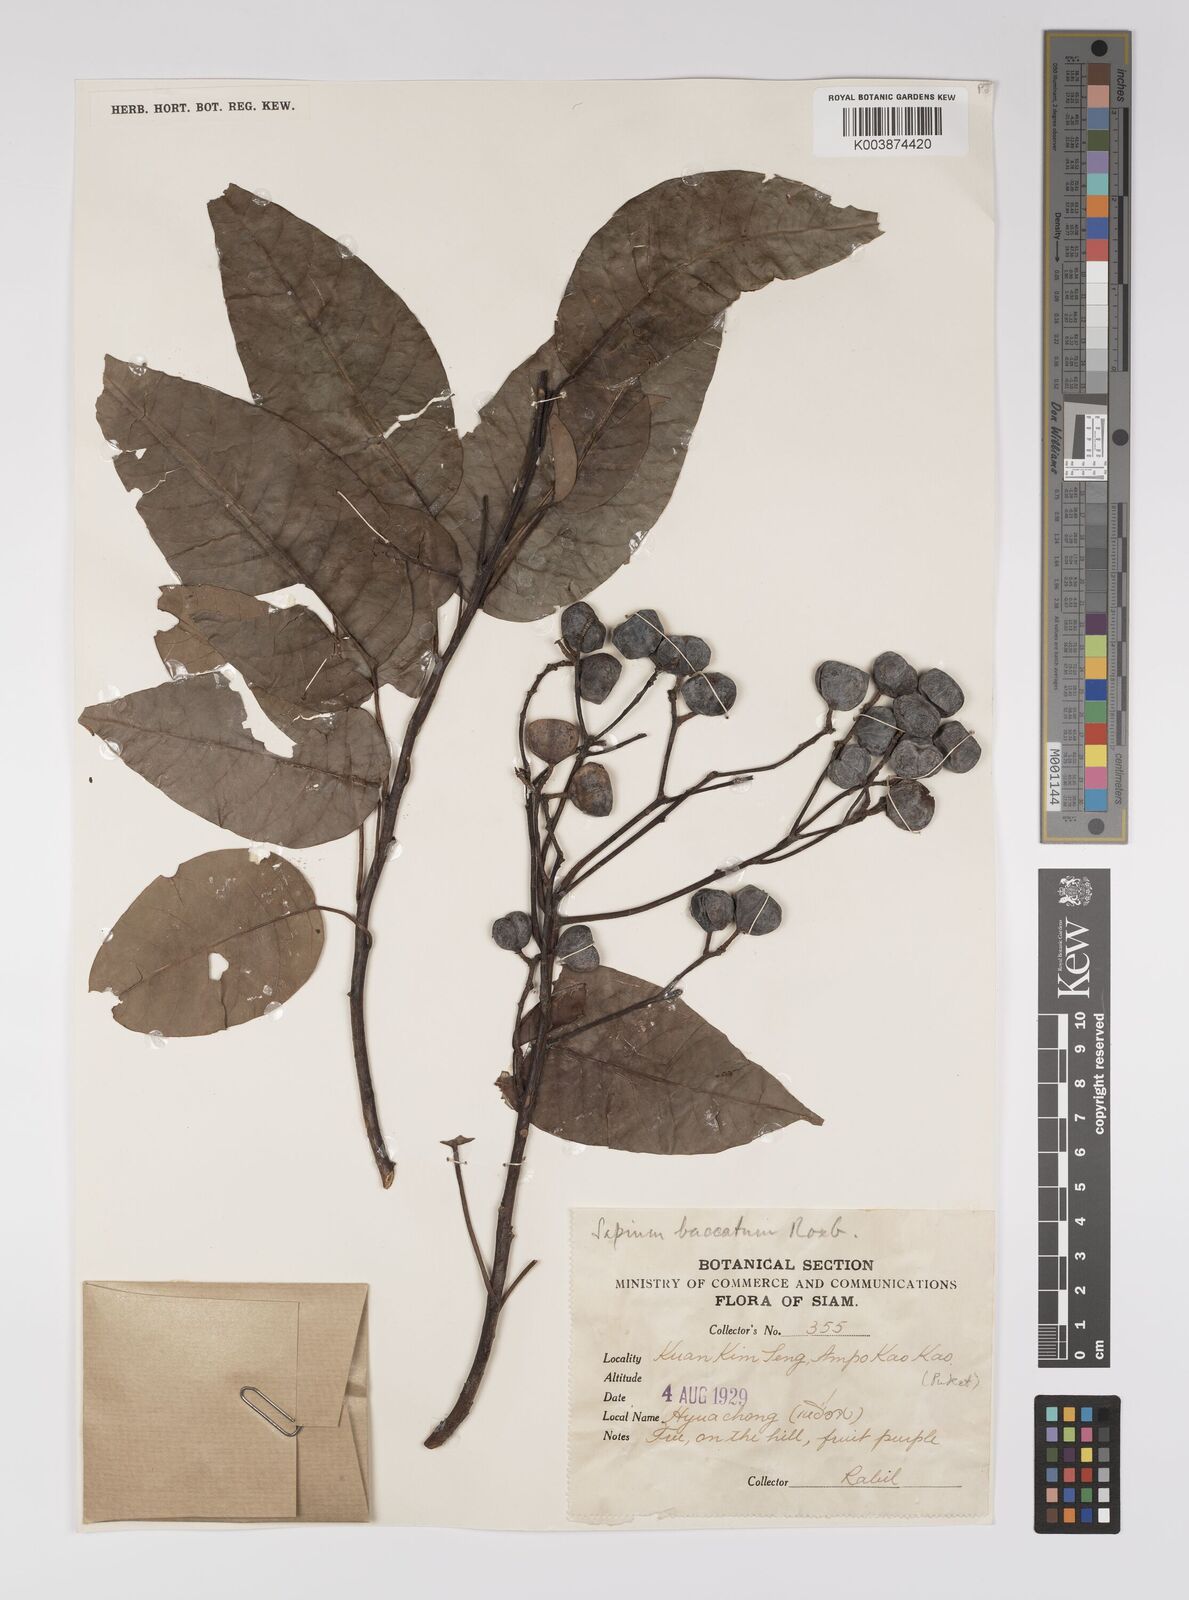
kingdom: Plantae
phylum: Tracheophyta
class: Magnoliopsida
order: Malpighiales
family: Euphorbiaceae
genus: Balakata
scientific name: Balakata baccata
